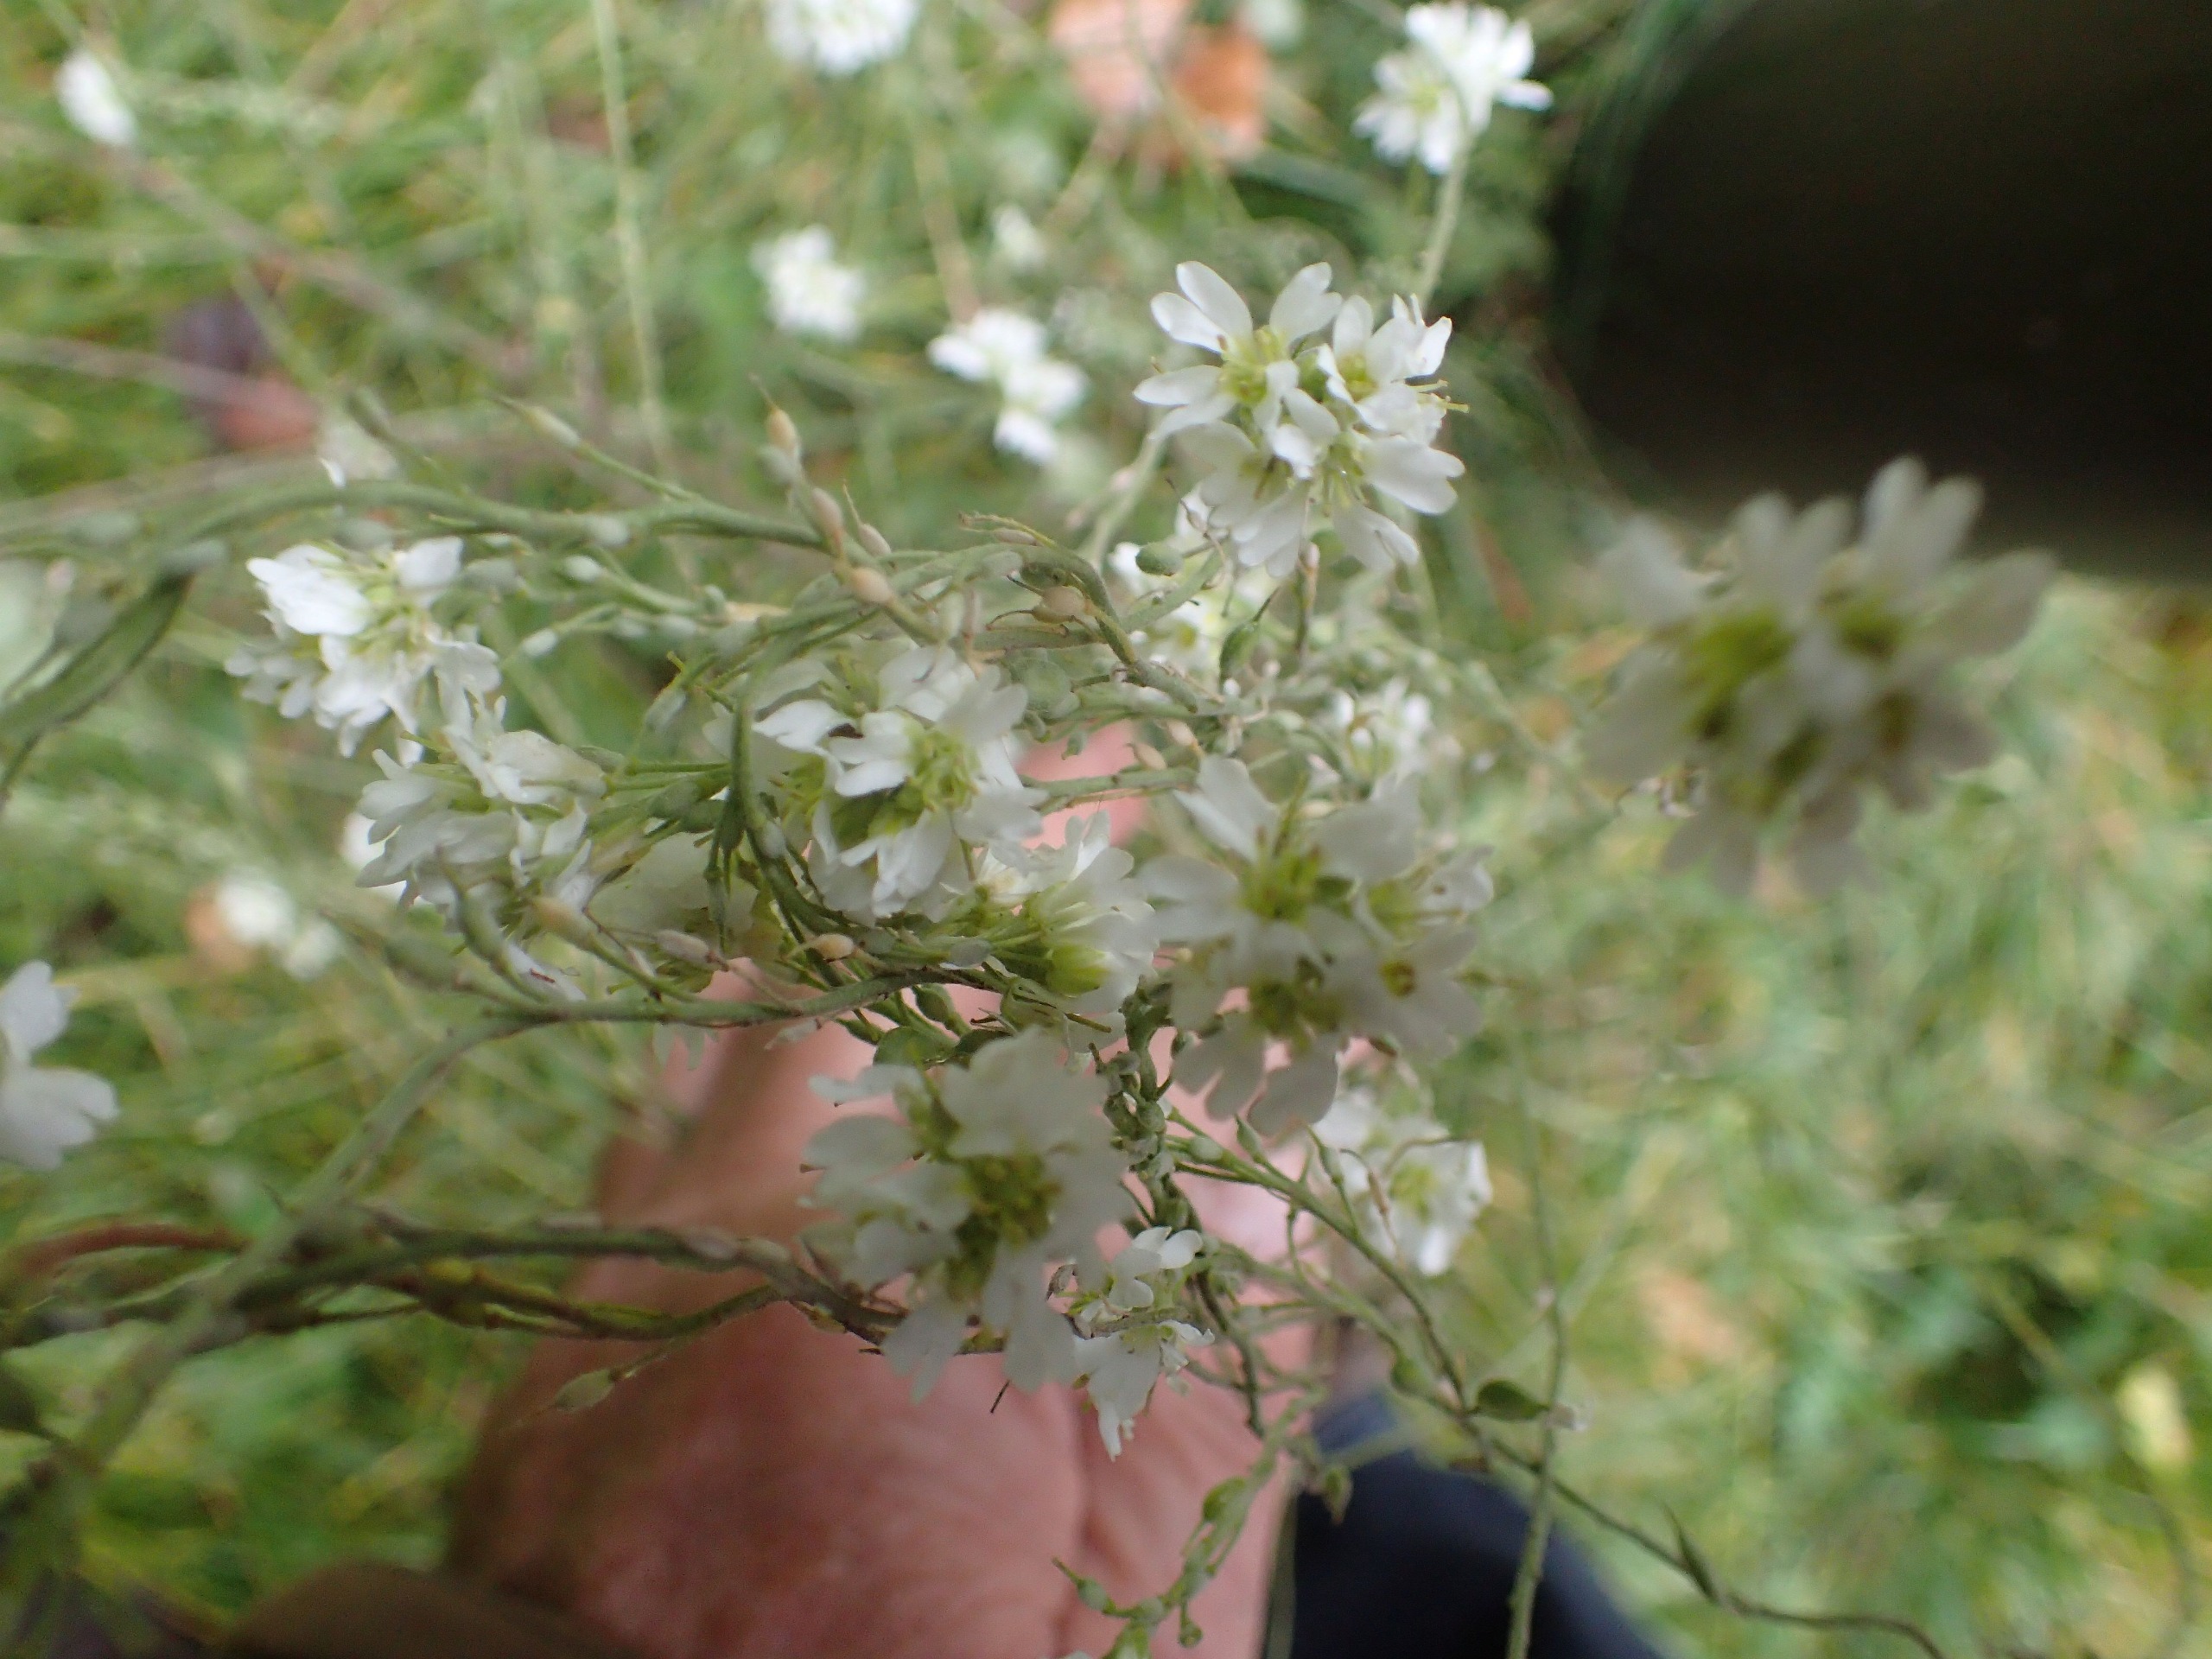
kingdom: Plantae
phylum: Tracheophyta
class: Magnoliopsida
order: Brassicales
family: Brassicaceae
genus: Berteroa
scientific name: Berteroa incana
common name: Kløvplade
